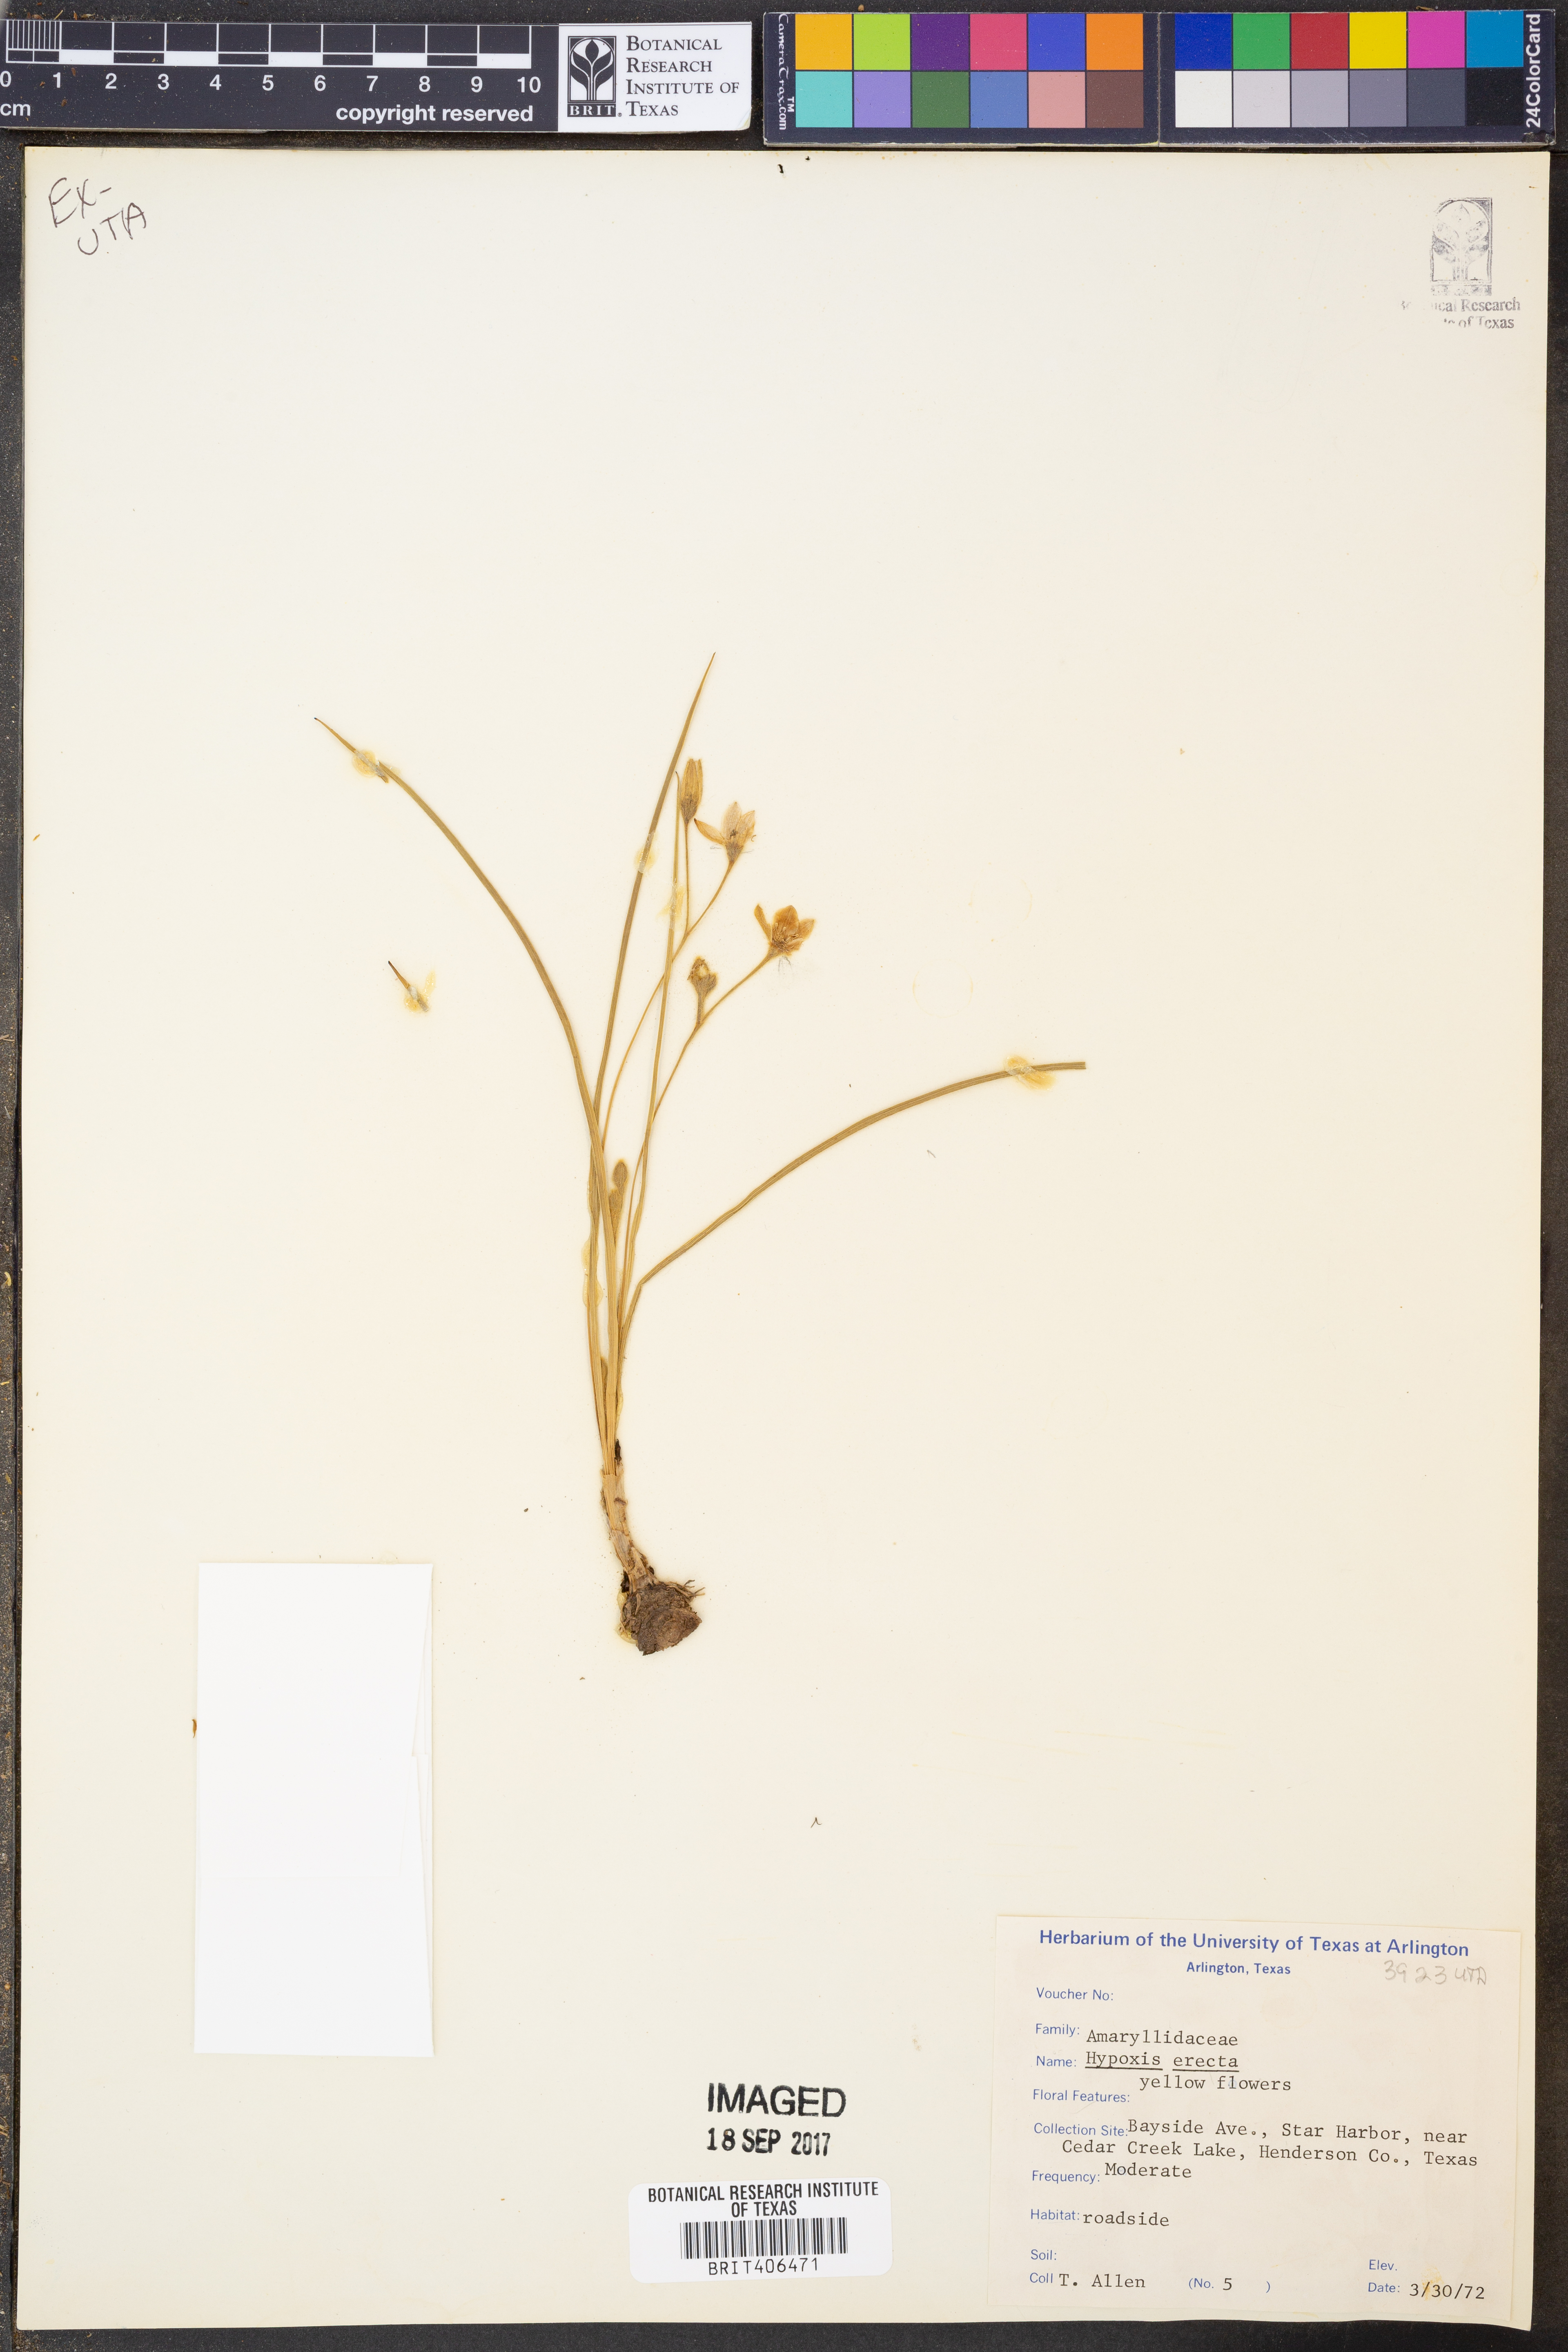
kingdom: Plantae
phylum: Tracheophyta
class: Liliopsida
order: Asparagales
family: Hypoxidaceae
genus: Hypoxis
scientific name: Hypoxis hirsuta
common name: Common goldstar
